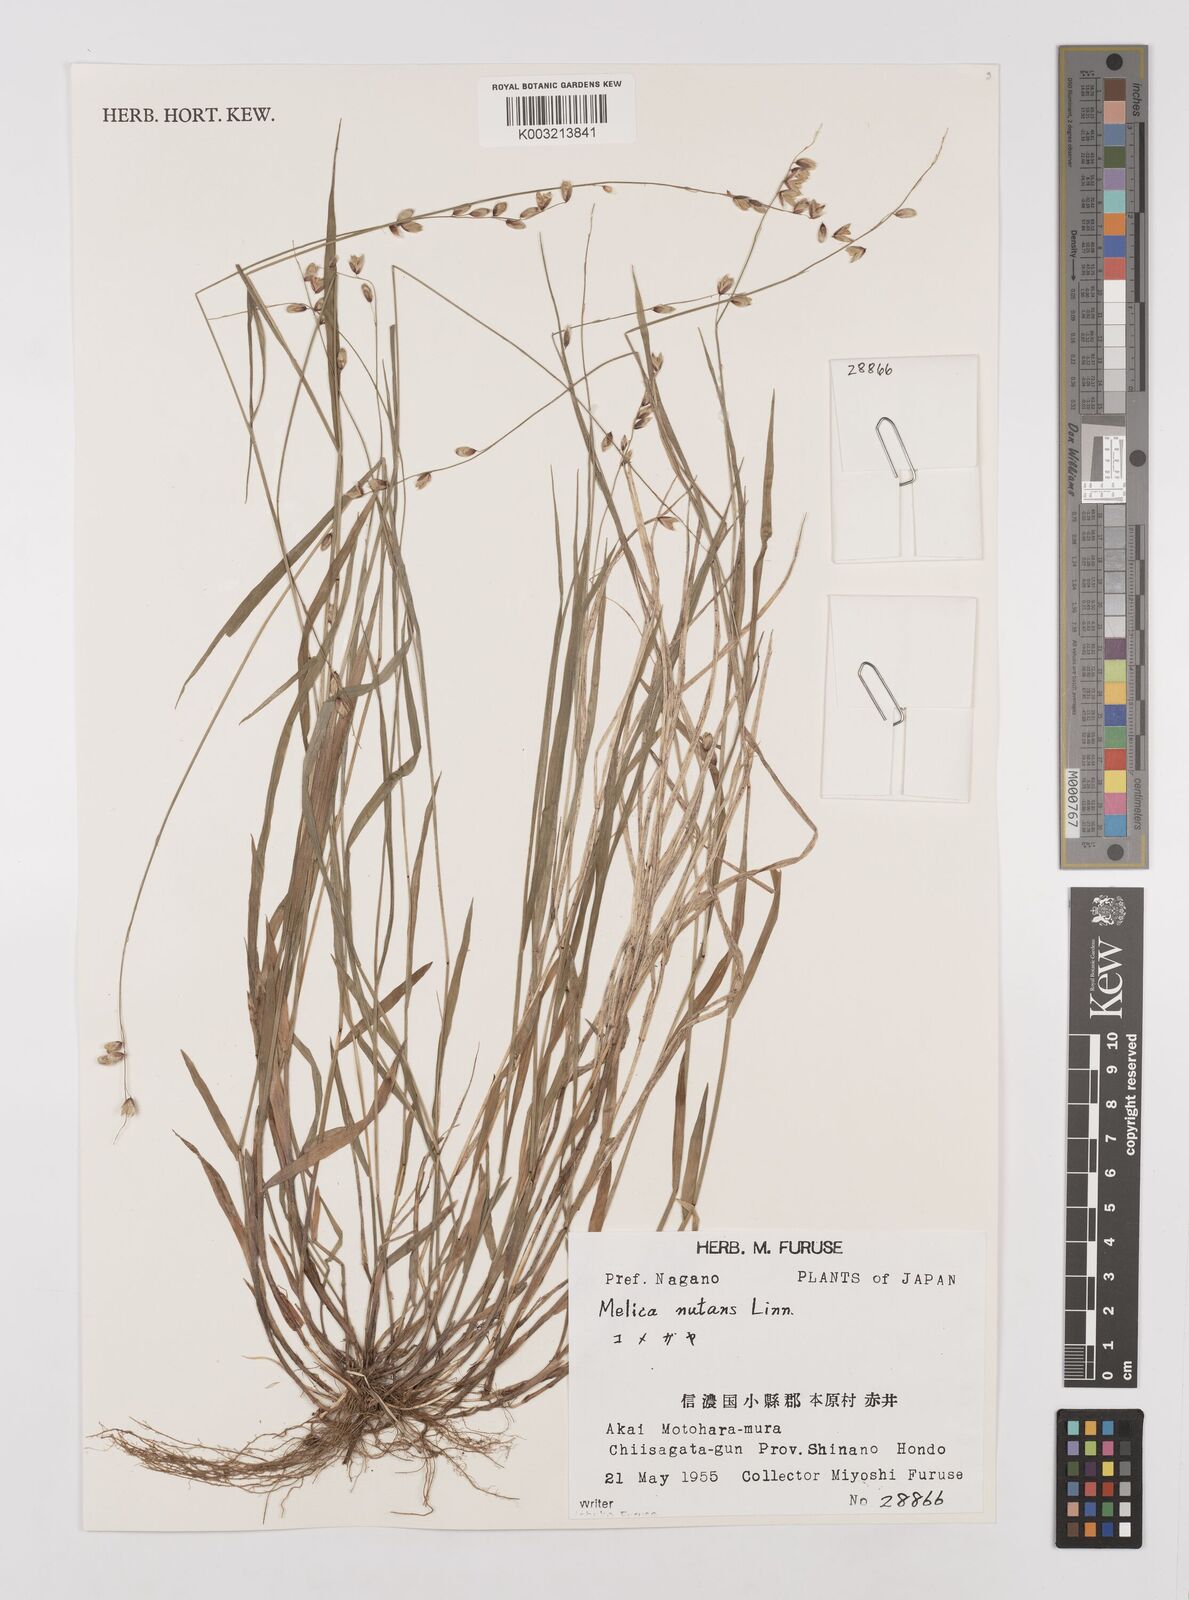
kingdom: Plantae
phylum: Tracheophyta
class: Liliopsida
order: Poales
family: Poaceae
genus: Melica
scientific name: Melica nutans
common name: Mountain melick
